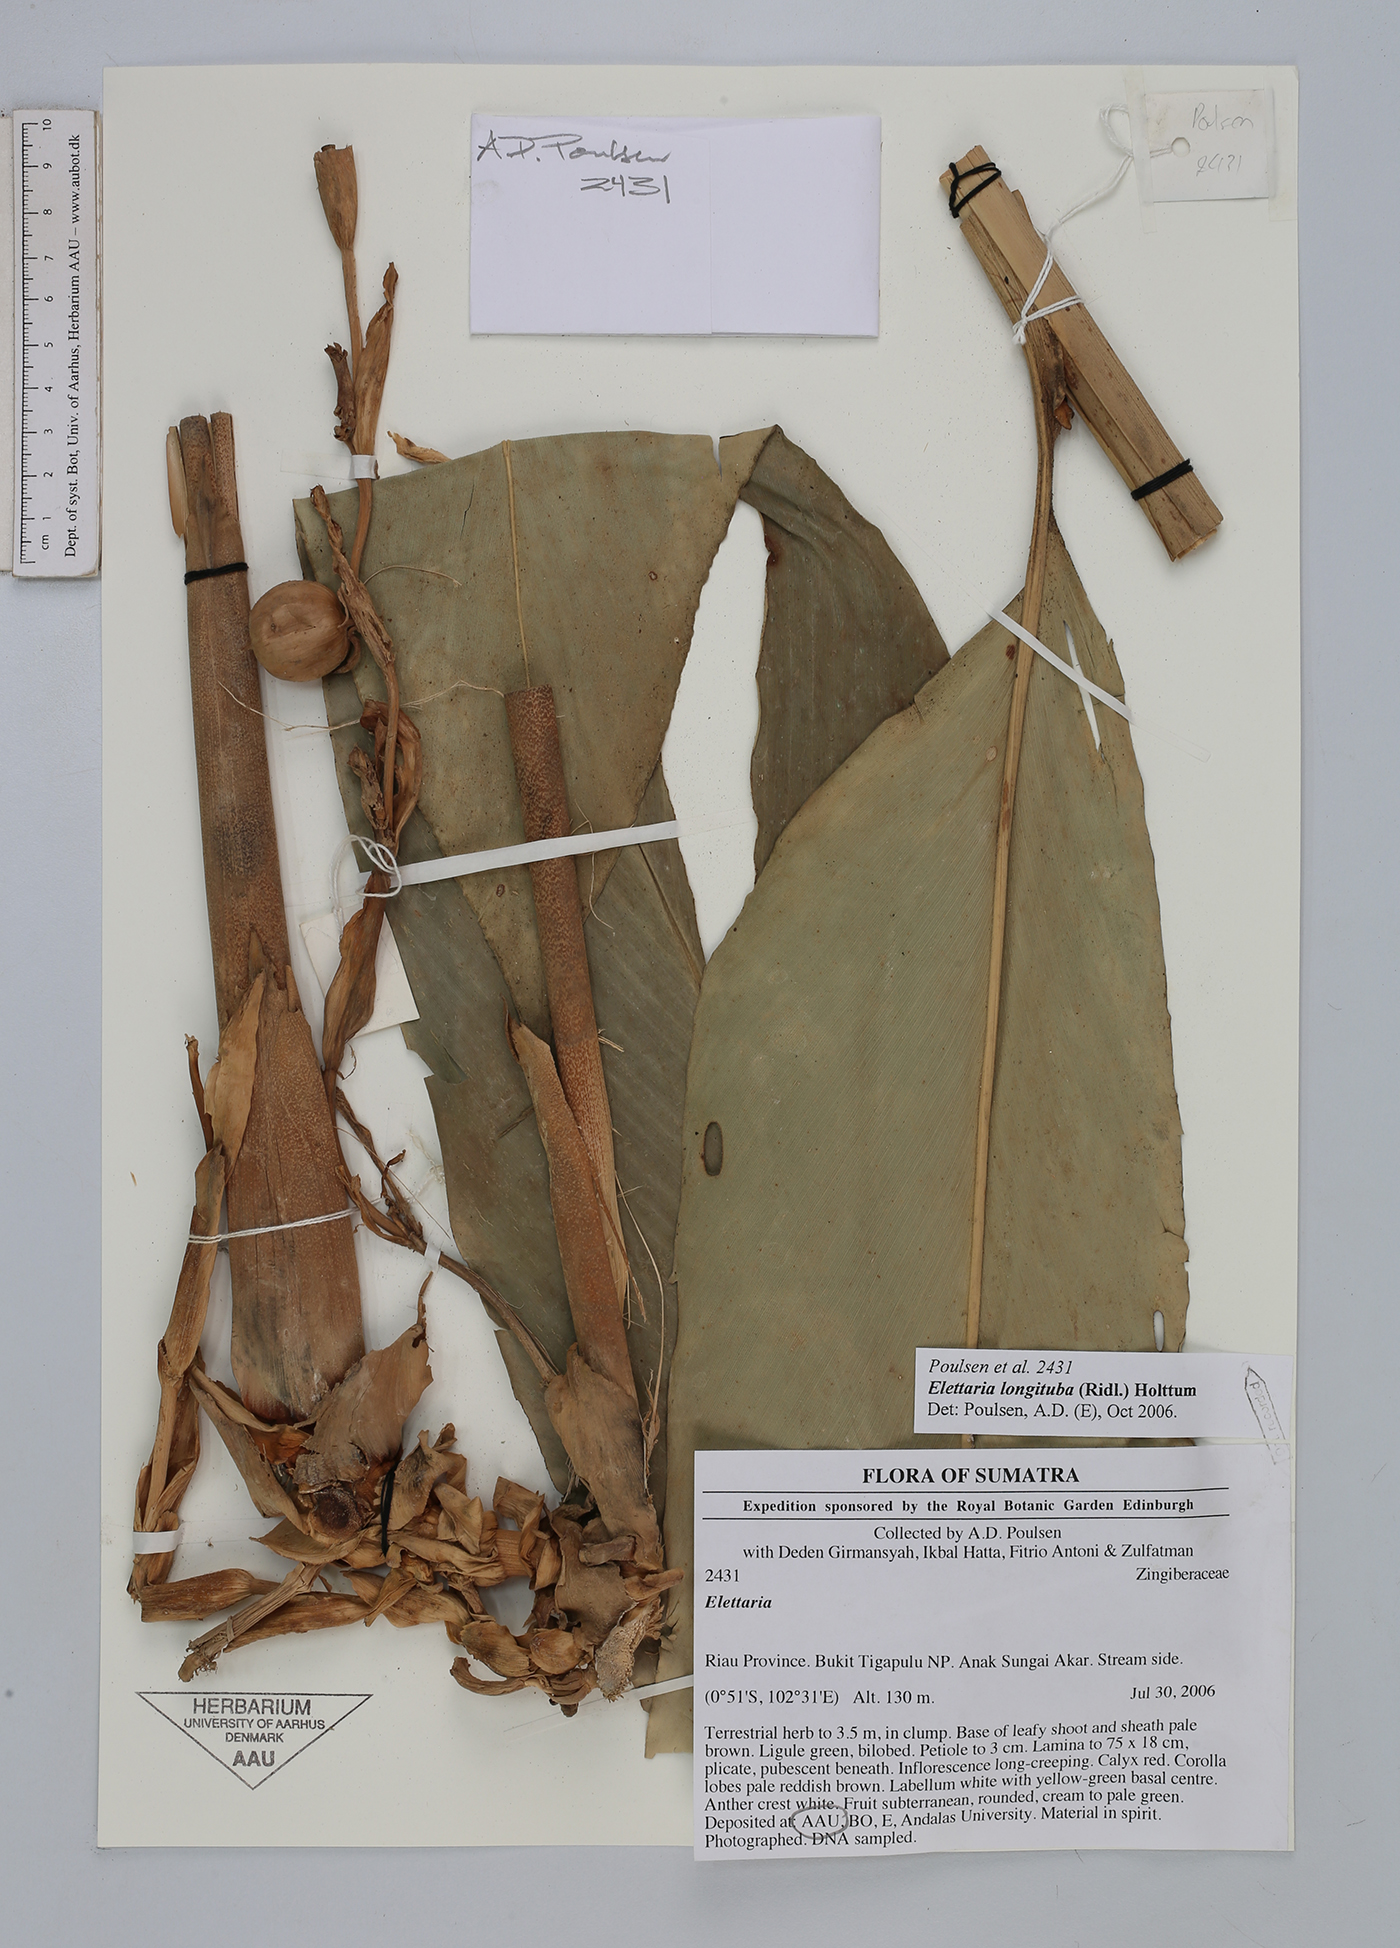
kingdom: Plantae
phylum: Tracheophyta
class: Liliopsida
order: Zingiberales
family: Zingiberaceae
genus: Sulettaria
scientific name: Sulettaria longituba
